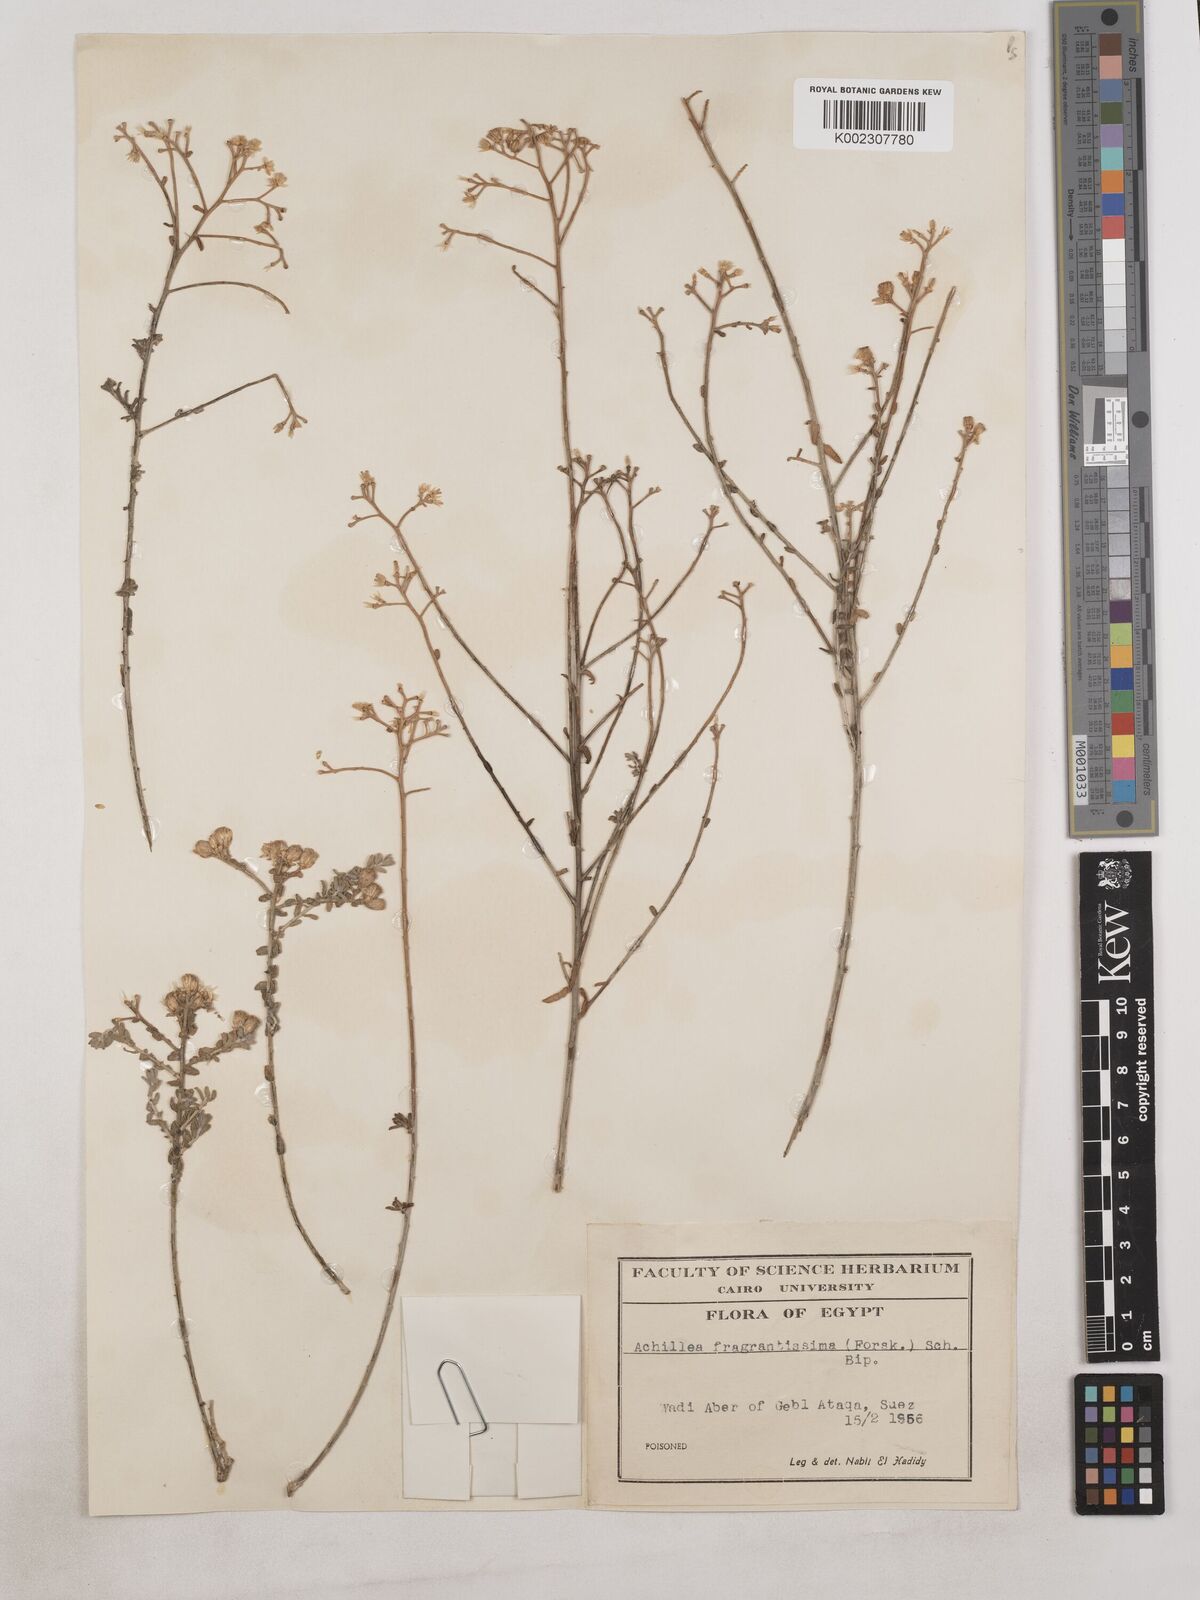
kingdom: Plantae
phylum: Tracheophyta
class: Magnoliopsida
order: Asterales
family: Asteraceae
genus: Achillea
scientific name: Achillea fragrantissima
